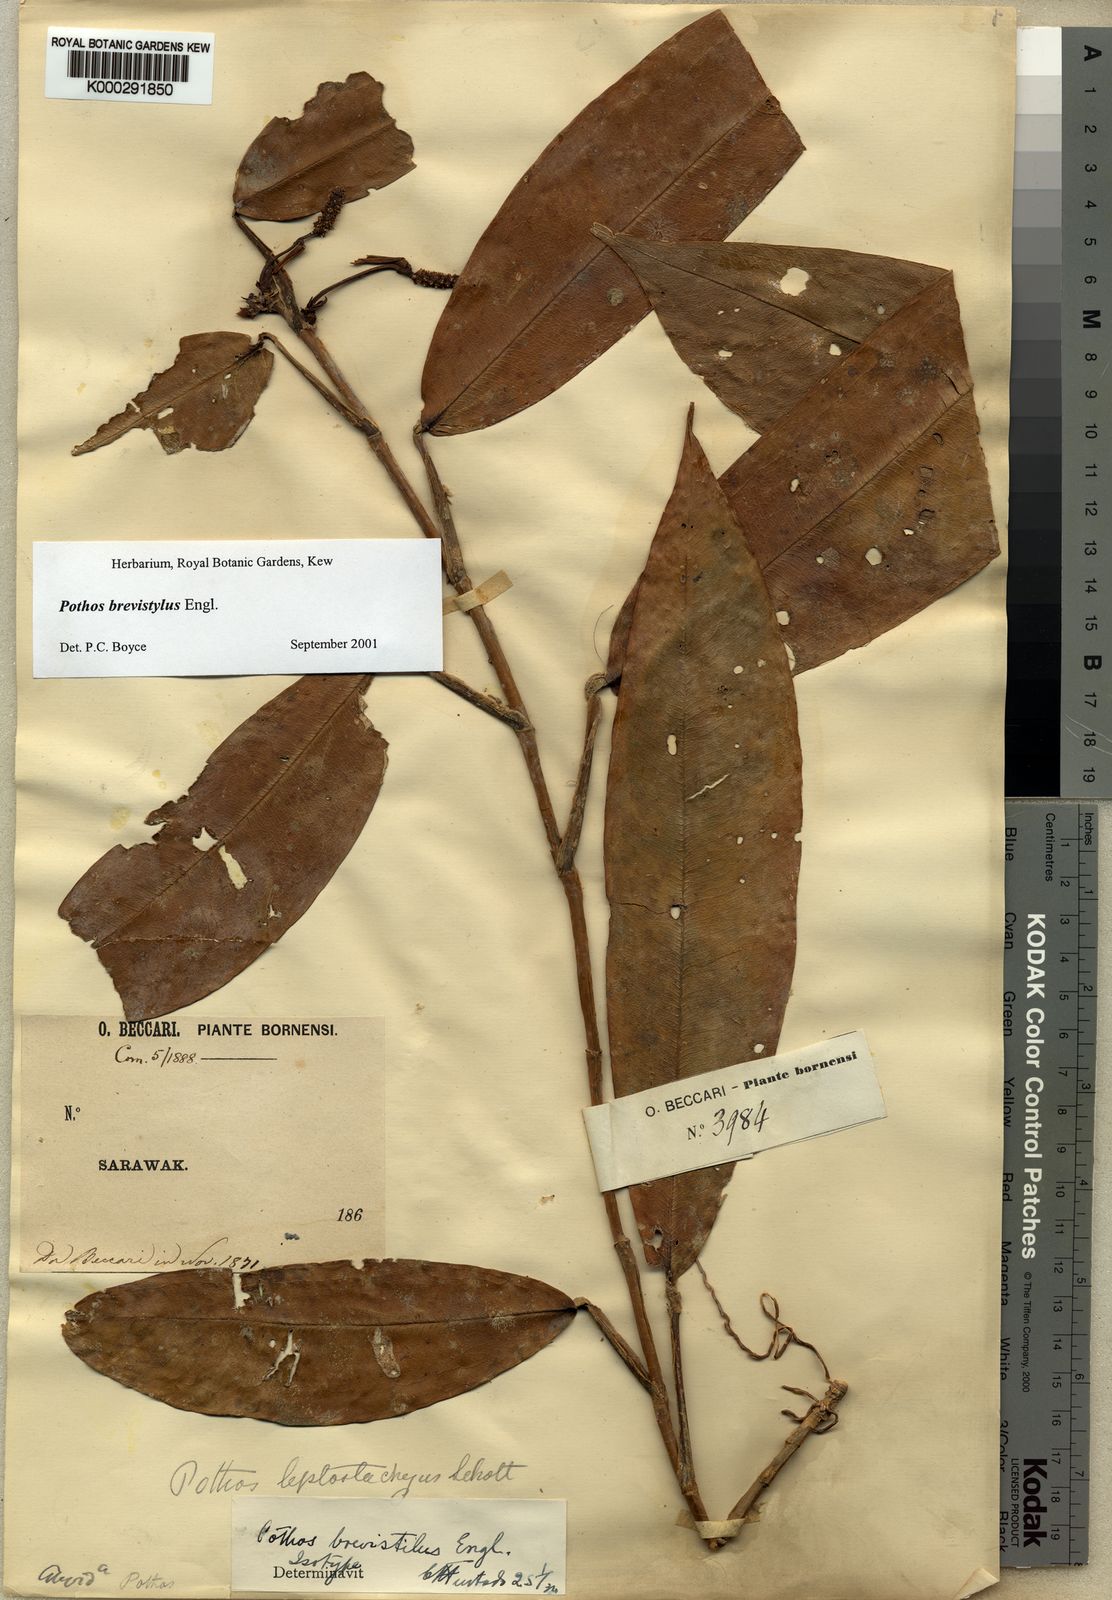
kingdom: Plantae
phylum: Tracheophyta
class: Liliopsida
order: Alismatales
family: Araceae
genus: Pothos
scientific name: Pothos brevistylus
